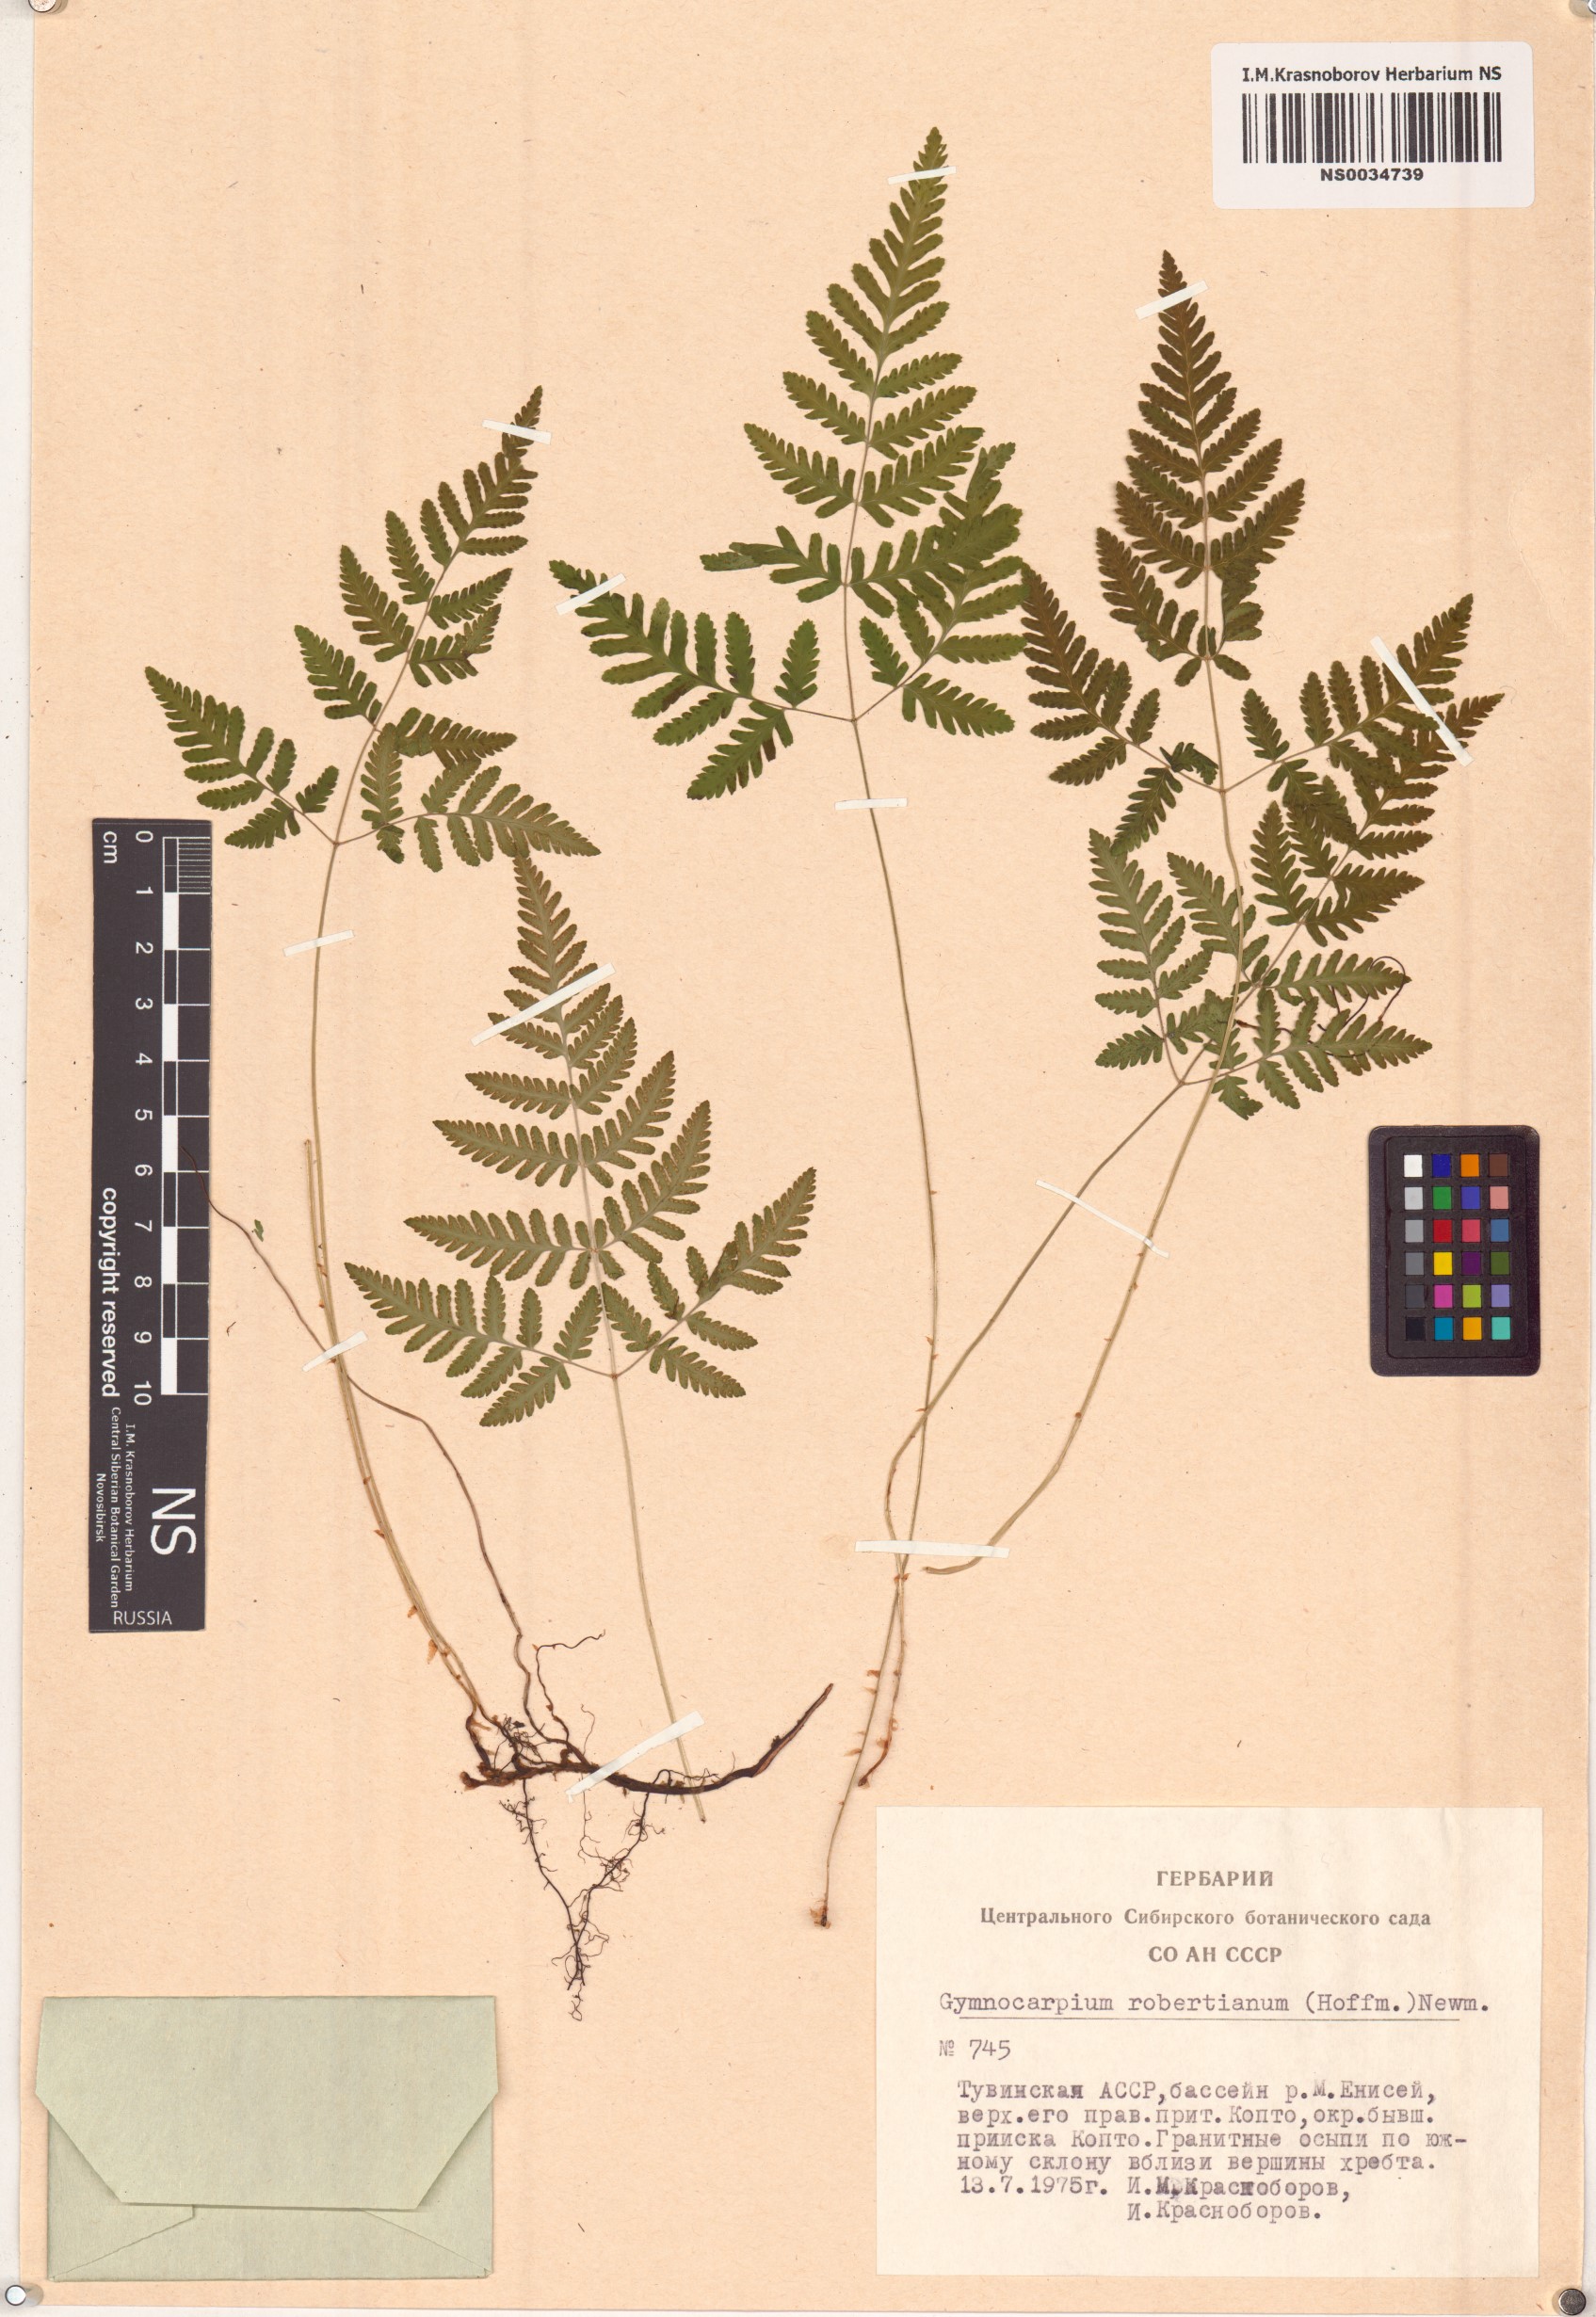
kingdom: Plantae
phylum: Tracheophyta
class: Polypodiopsida
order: Polypodiales
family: Cystopteridaceae
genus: Gymnocarpium
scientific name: Gymnocarpium robertianum
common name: Limestone fern
